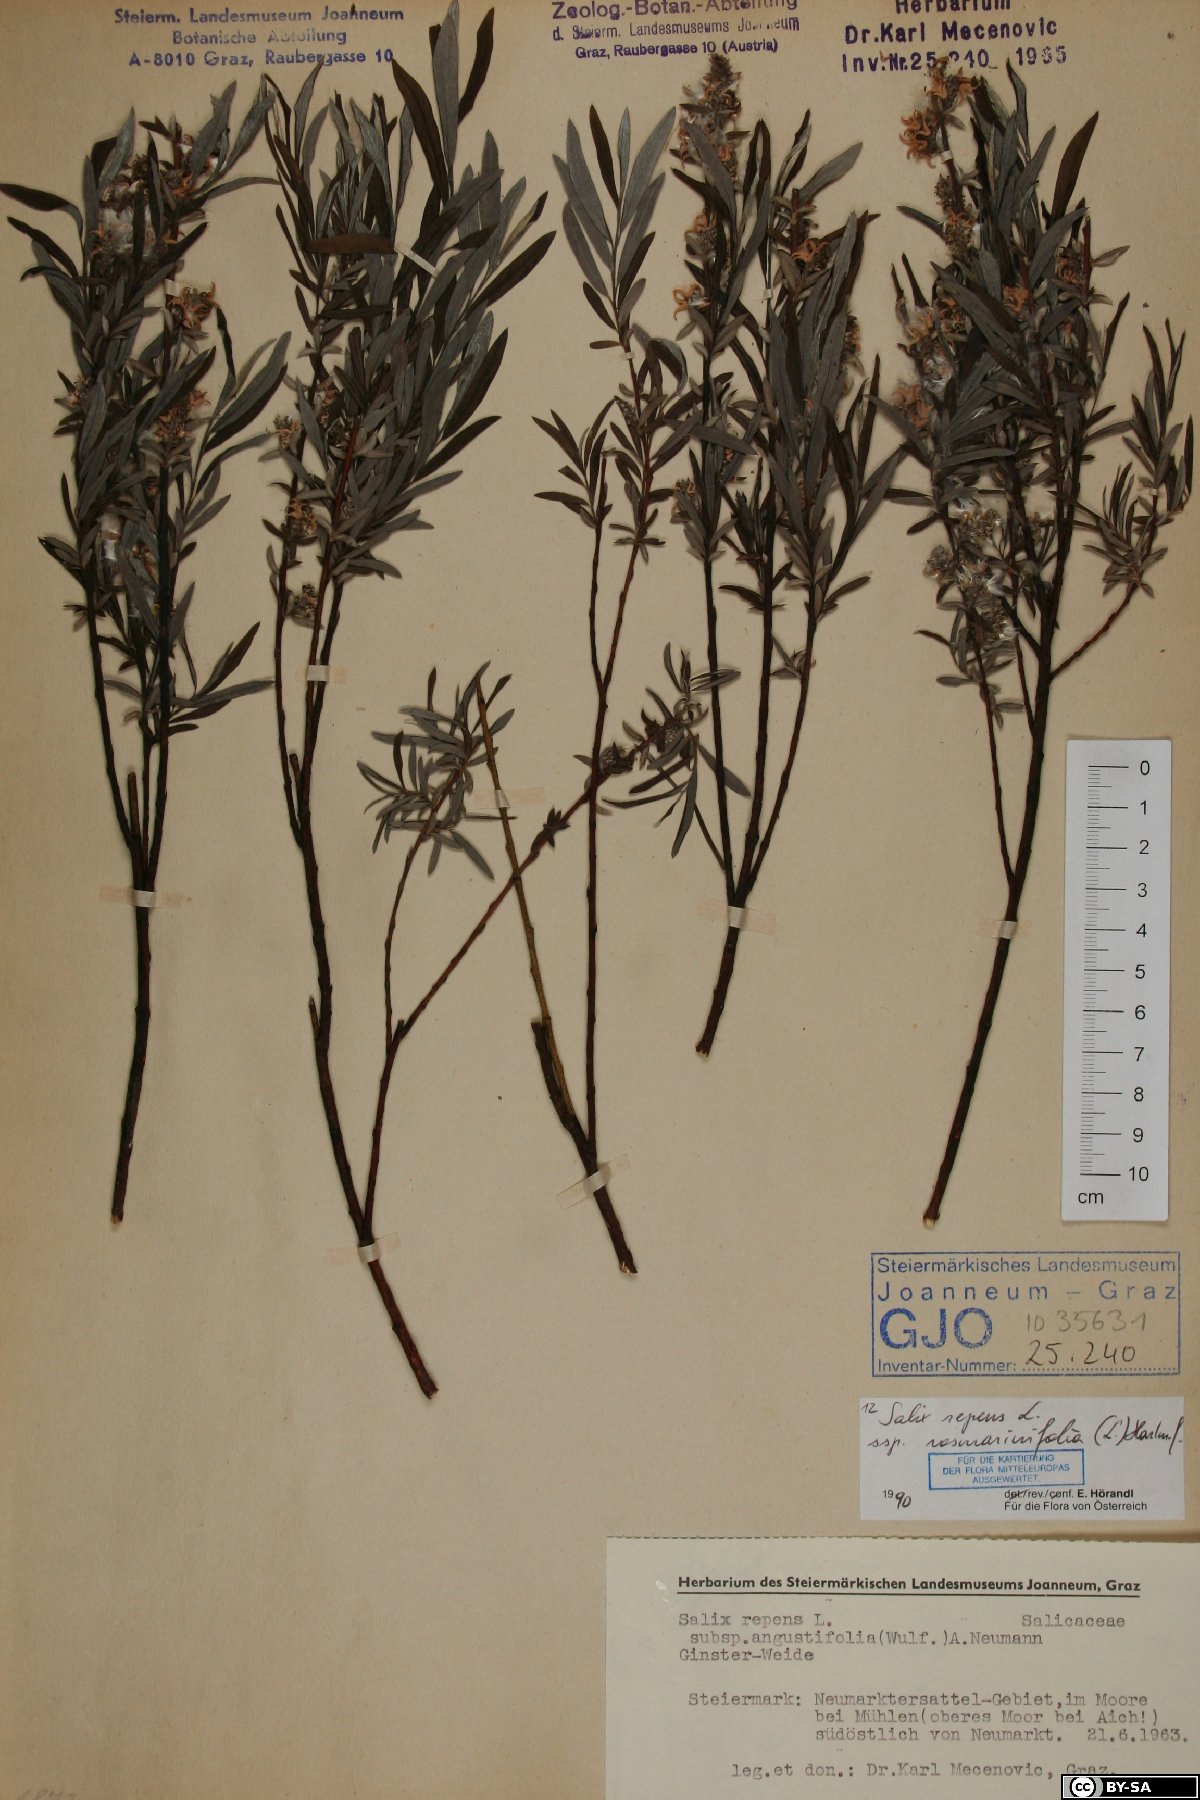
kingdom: Plantae
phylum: Tracheophyta
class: Magnoliopsida
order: Malpighiales
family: Salicaceae
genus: Salix
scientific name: Salix repens
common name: Creeping willow
